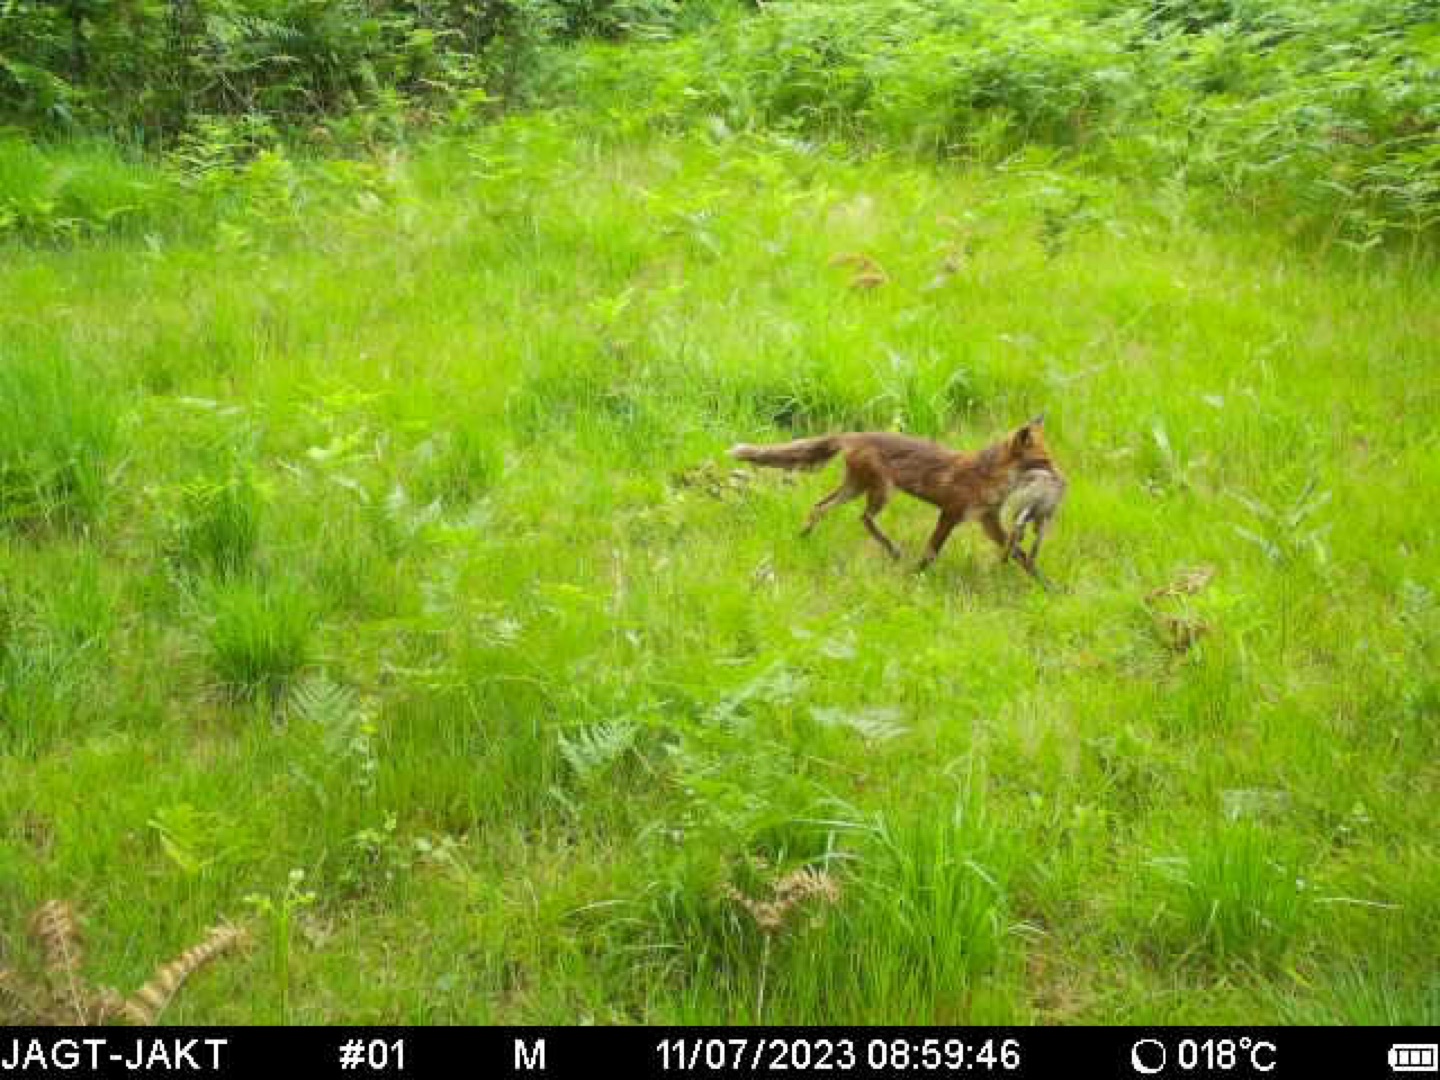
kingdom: Animalia
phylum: Chordata
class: Mammalia
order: Carnivora
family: Canidae
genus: Vulpes
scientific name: Vulpes vulpes
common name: Ræv
